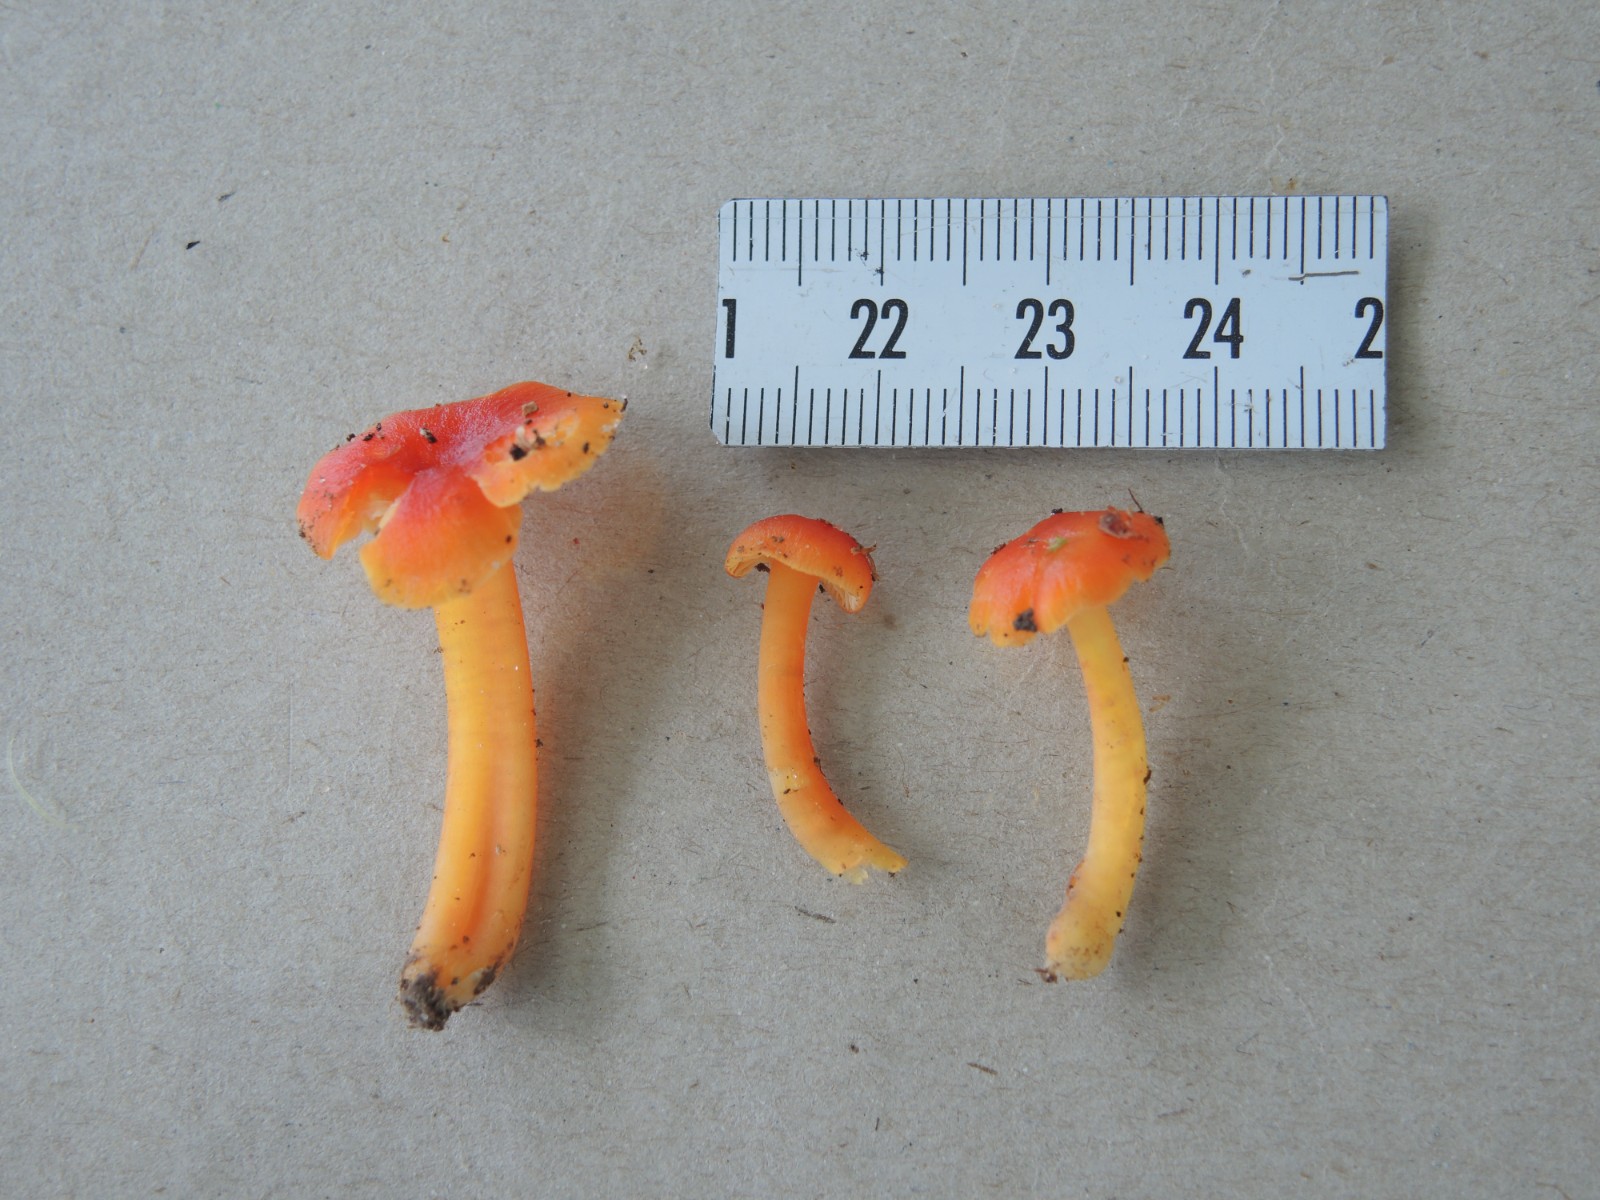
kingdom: Fungi
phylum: Basidiomycota
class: Agaricomycetes
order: Agaricales
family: Hygrophoraceae
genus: Hygrocybe
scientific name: Hygrocybe
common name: vokshat
